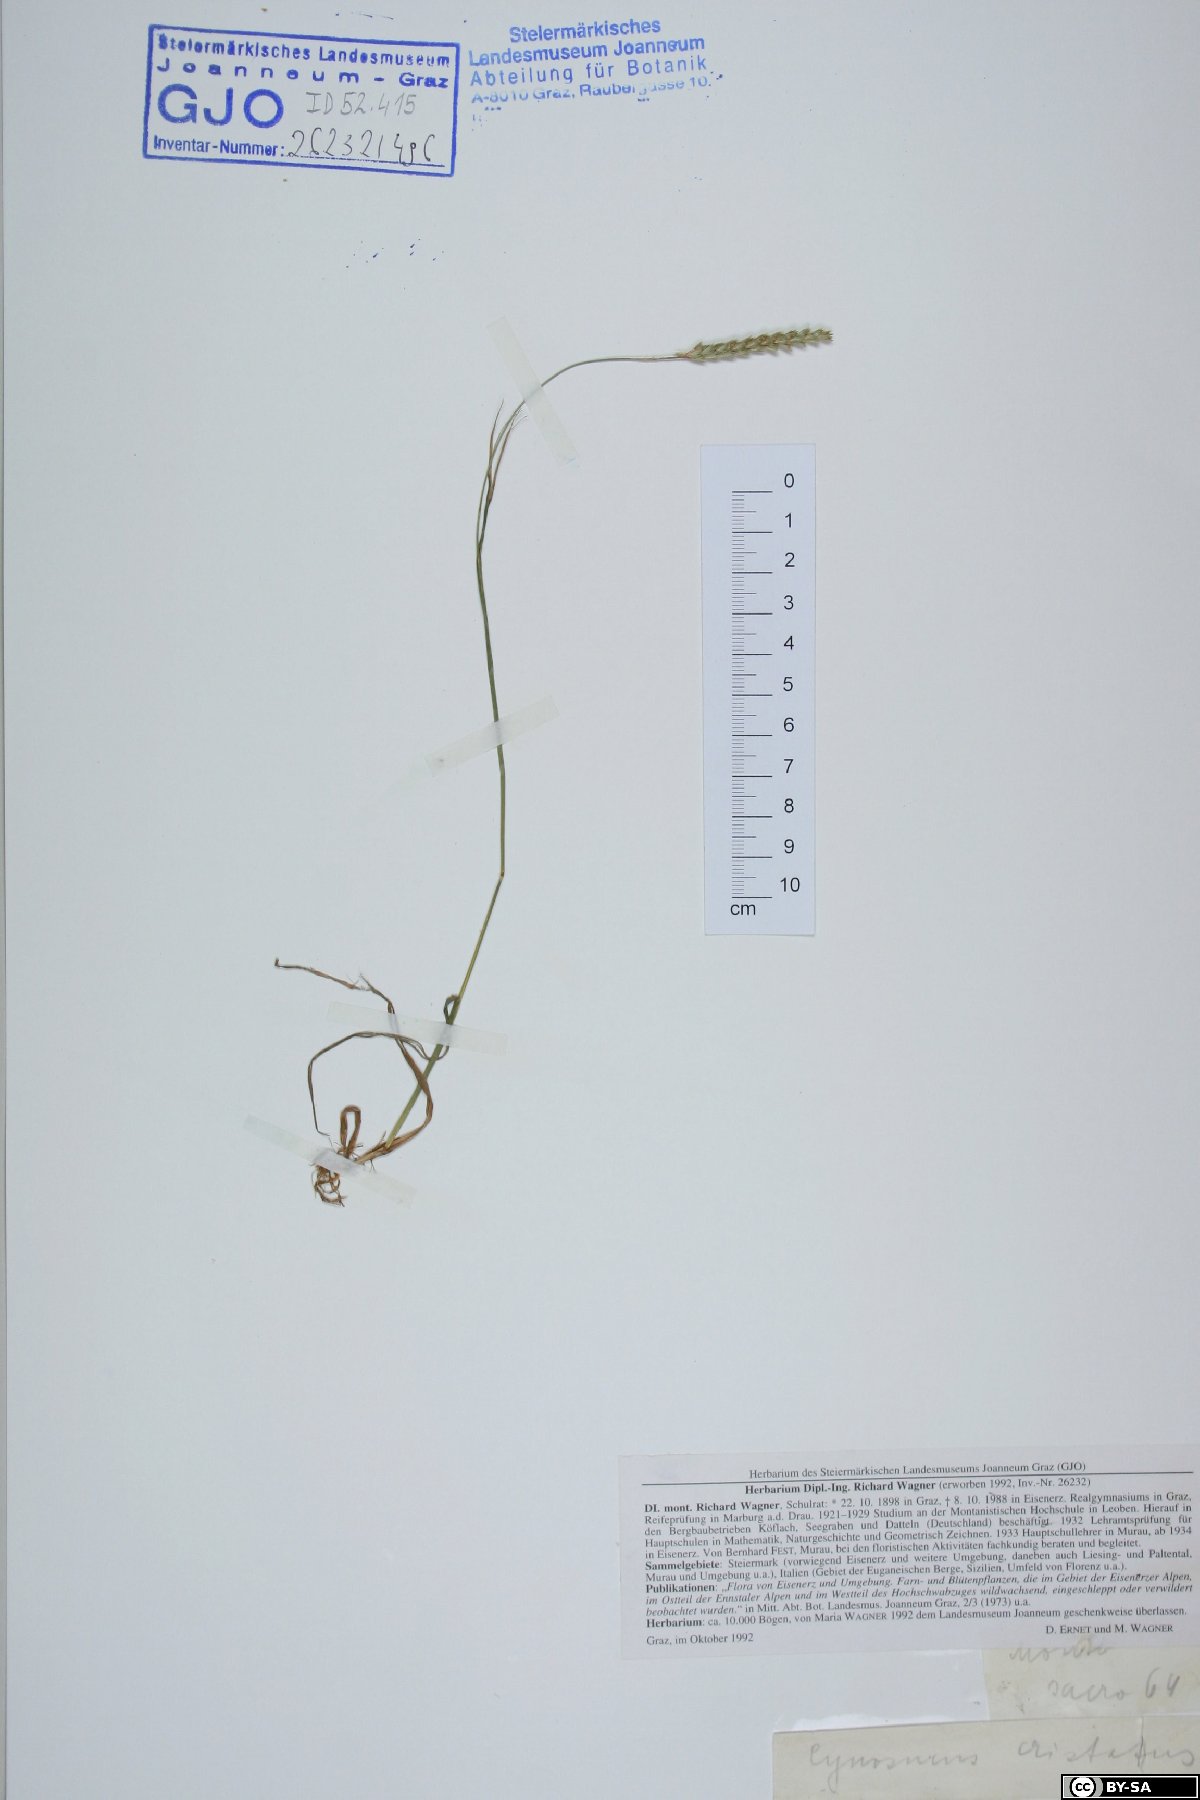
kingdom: Plantae
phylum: Tracheophyta
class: Liliopsida
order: Poales
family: Poaceae
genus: Cynosurus
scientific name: Cynosurus cristatus
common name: Crested dog's-tail
